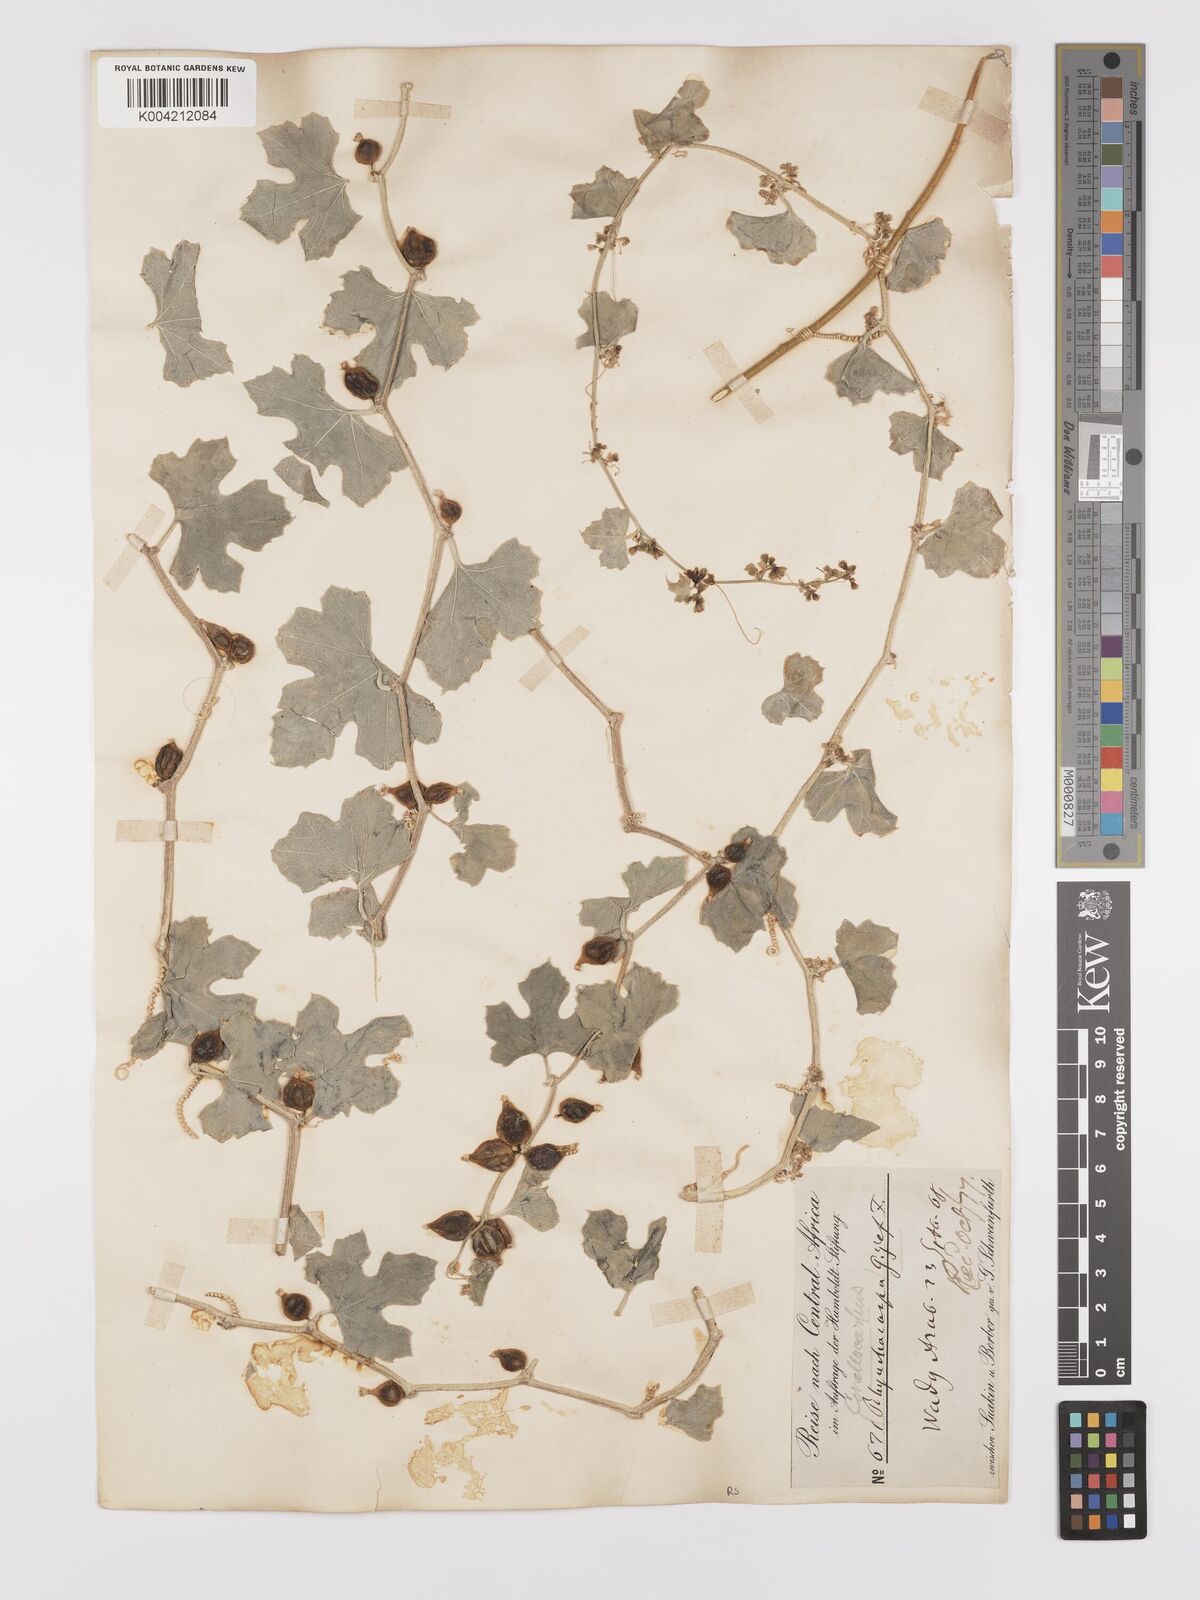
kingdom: Plantae
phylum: Tracheophyta
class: Magnoliopsida
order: Cucurbitales
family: Cucurbitaceae
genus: Kedrostis
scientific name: Kedrostis gijef
